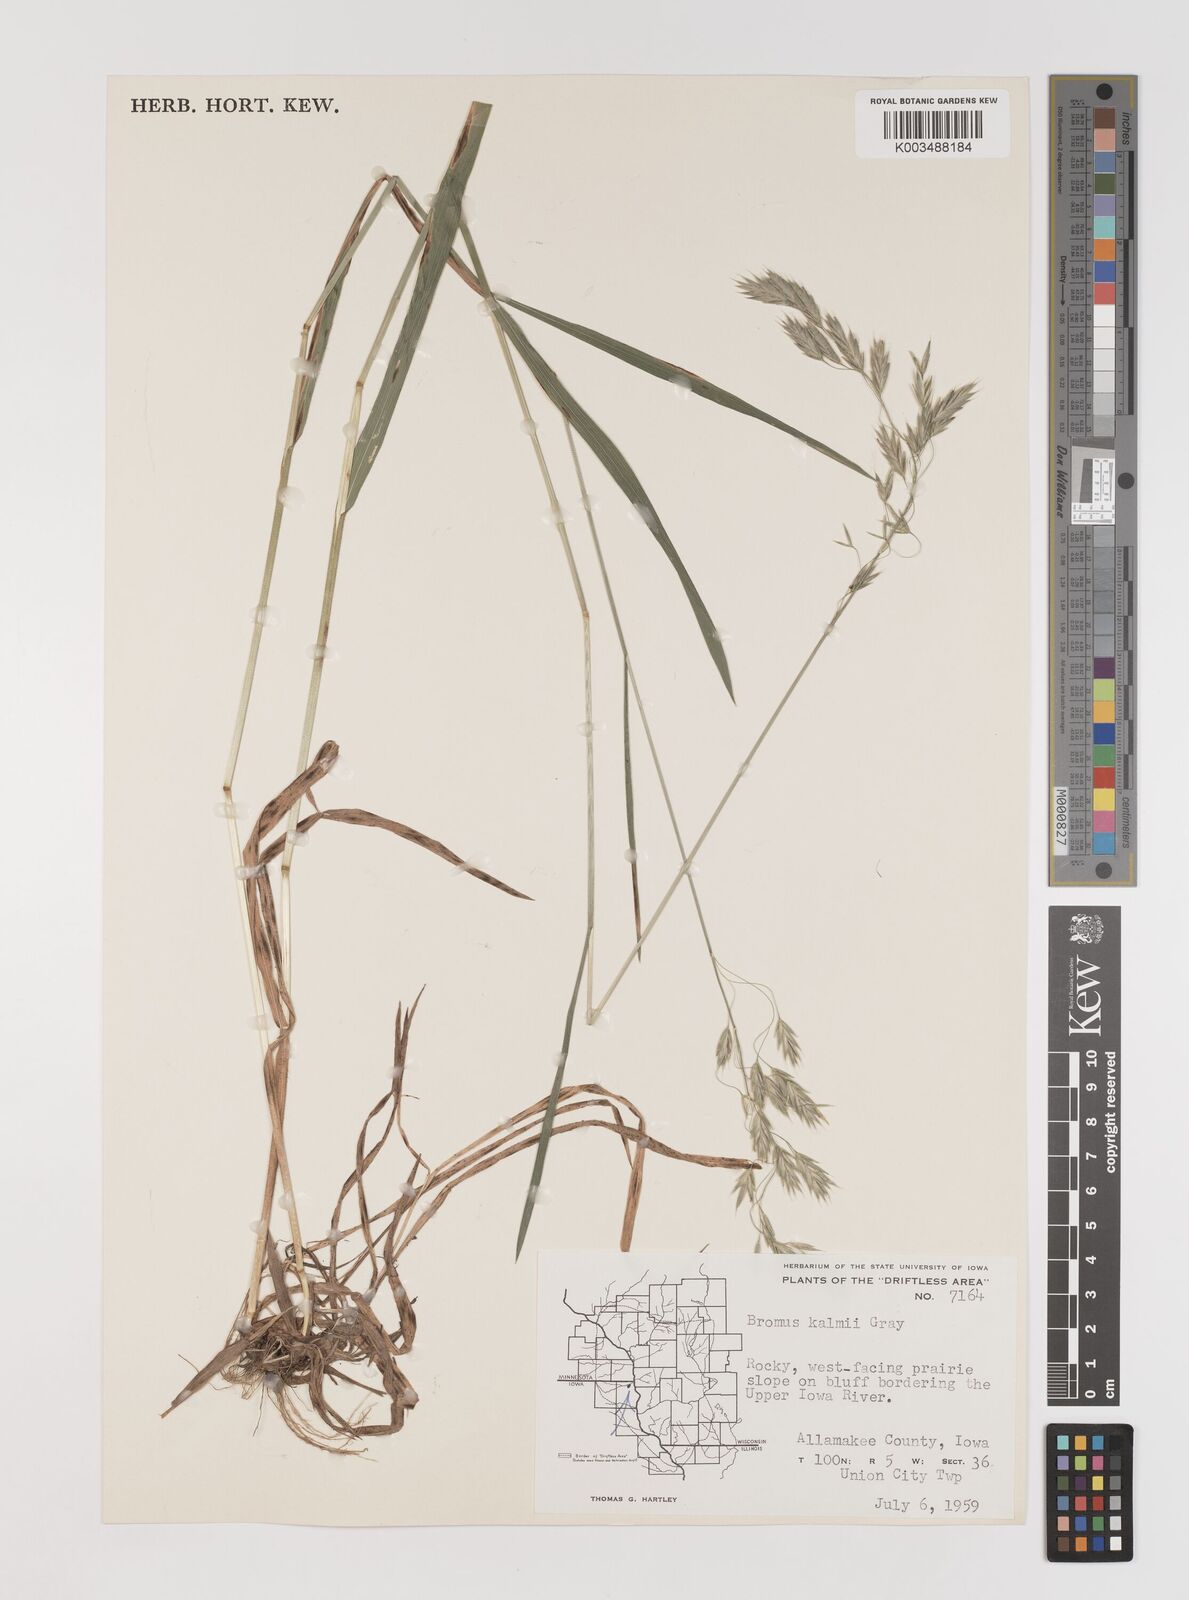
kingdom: Plantae
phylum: Tracheophyta
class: Liliopsida
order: Poales
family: Poaceae
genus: Bromus
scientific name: Bromus kalmii
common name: Kalm brome
